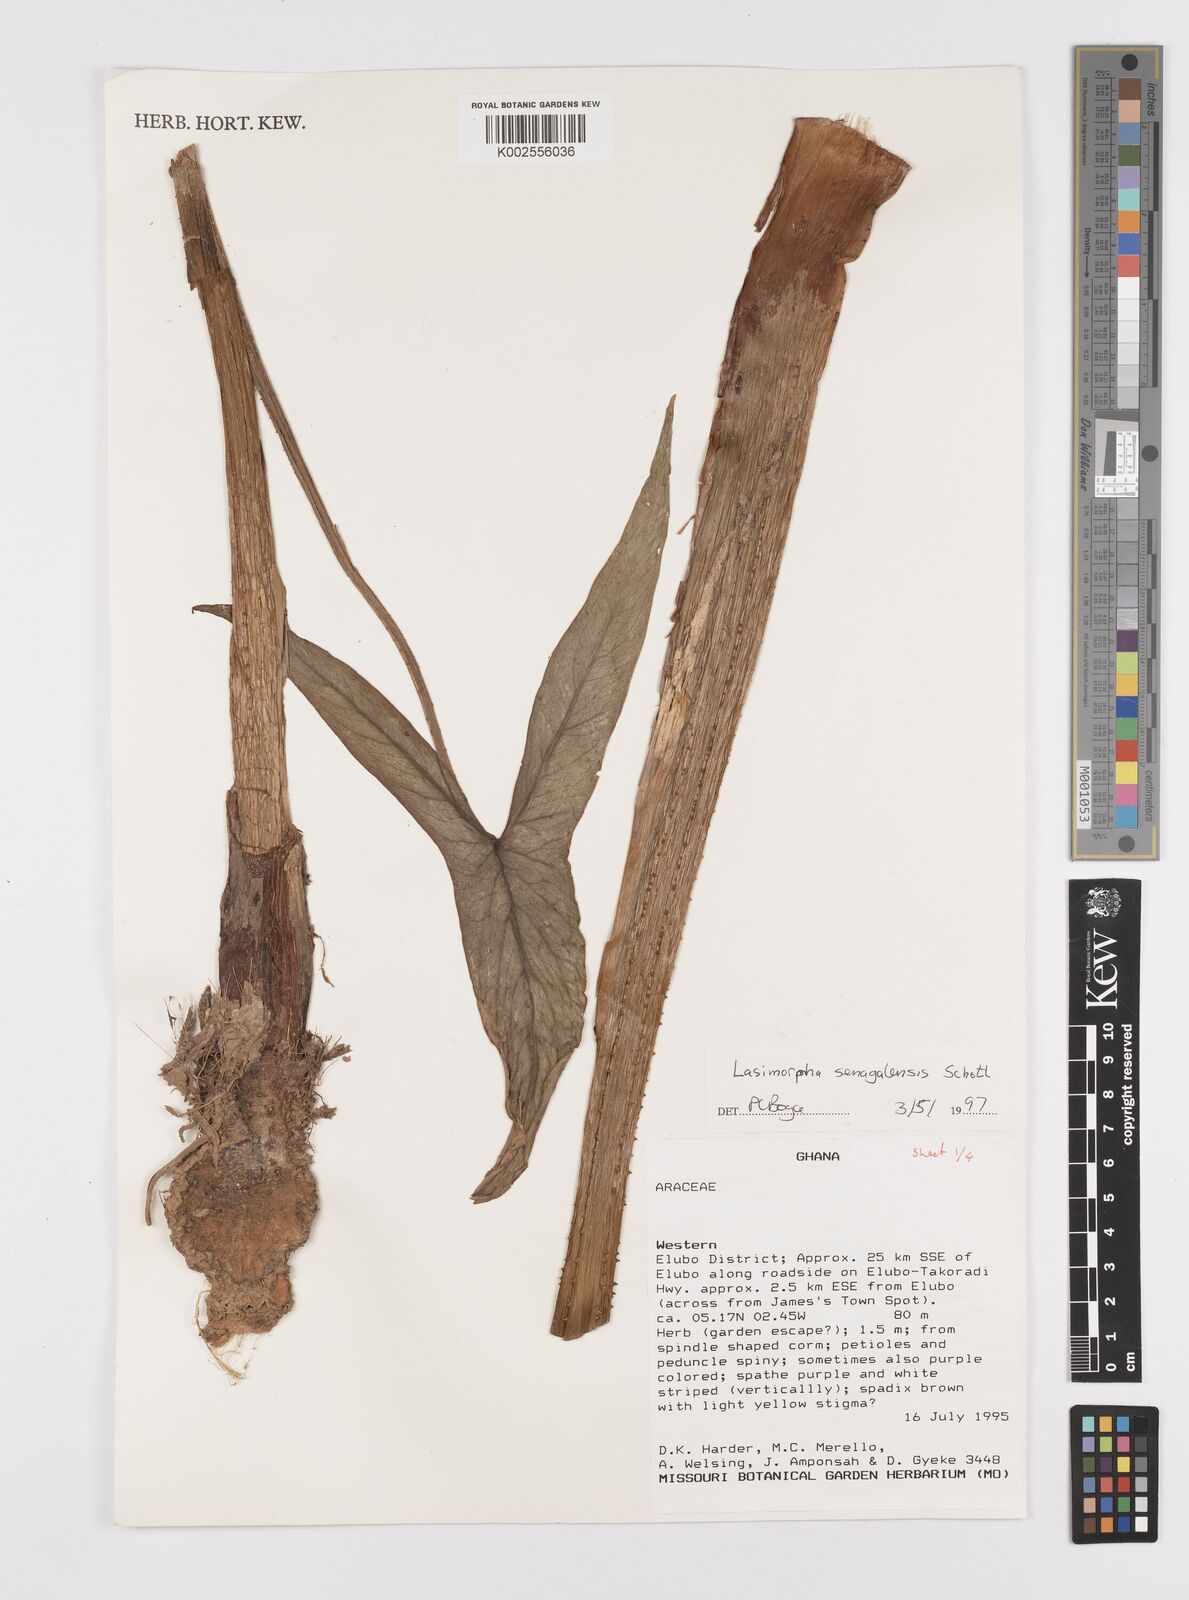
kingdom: Plantae
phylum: Tracheophyta
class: Liliopsida
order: Alismatales
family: Araceae
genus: Lasimorpha
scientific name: Lasimorpha senegalensis
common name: Swamp arum
